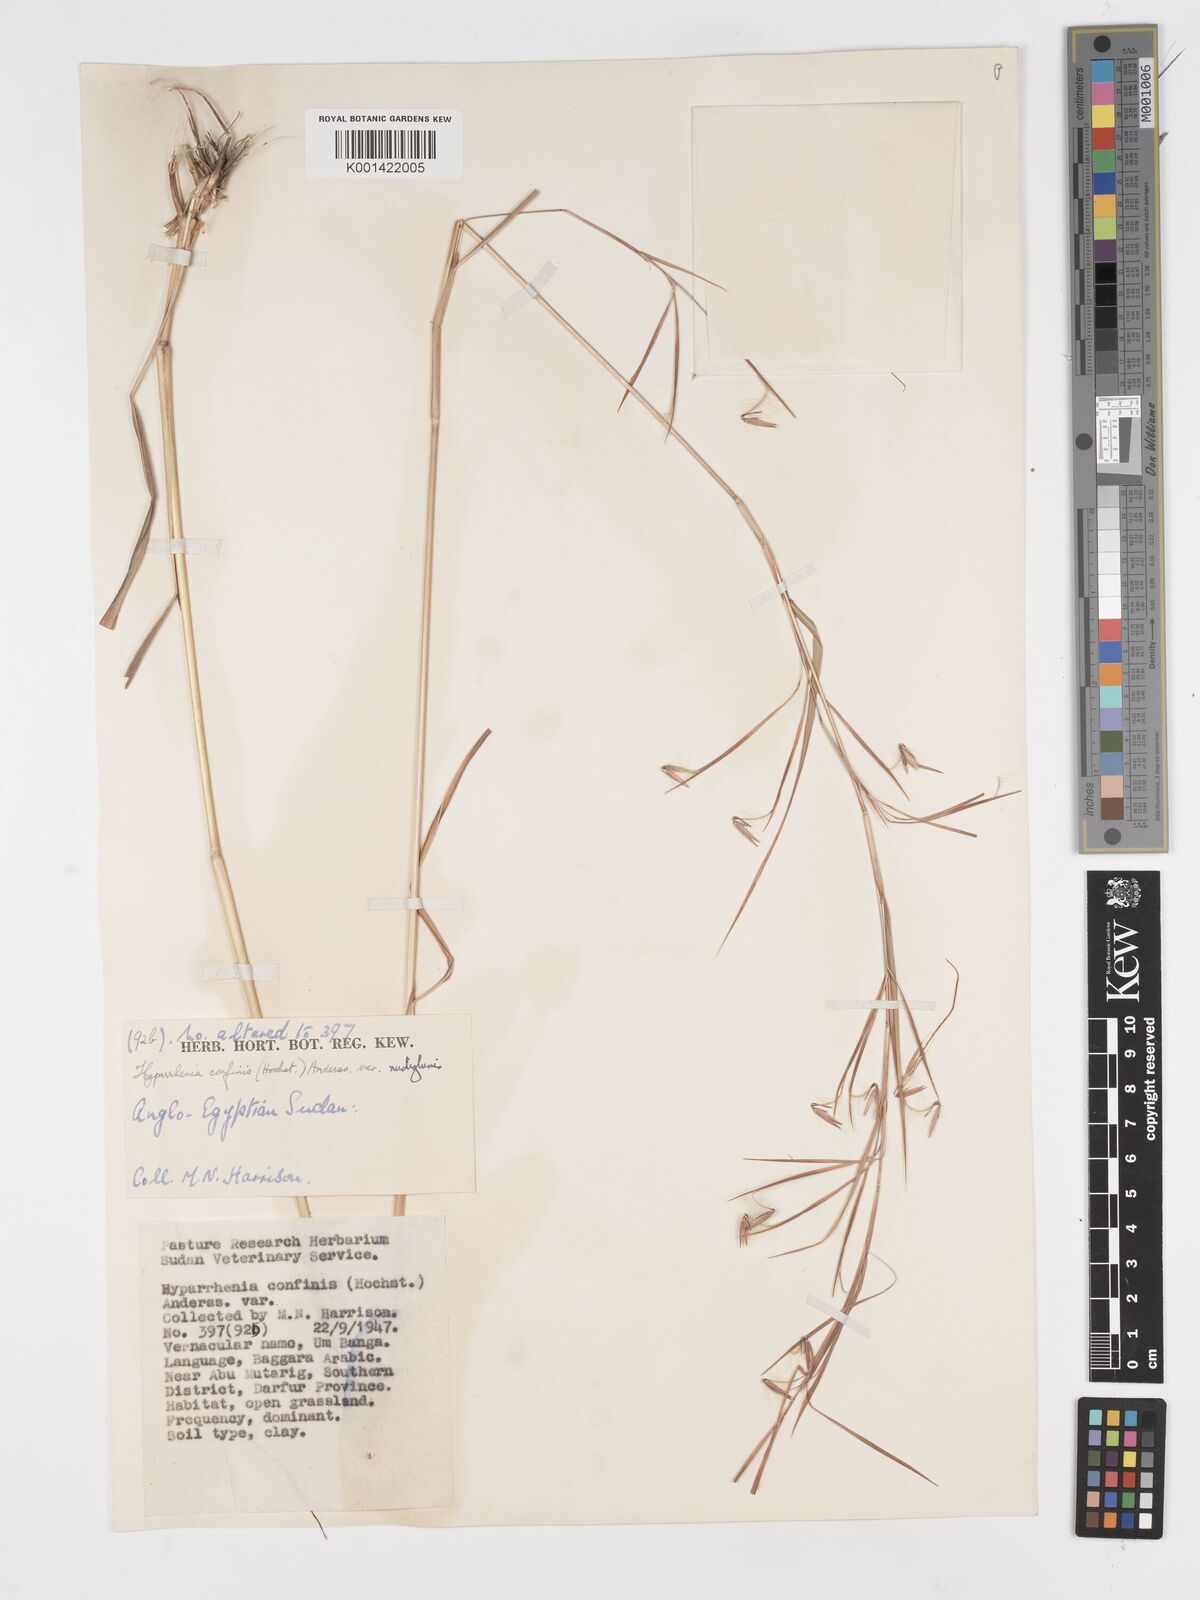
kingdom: Plantae
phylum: Tracheophyta
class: Liliopsida
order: Poales
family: Poaceae
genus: Hyparrhenia
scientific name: Hyparrhenia confinis
